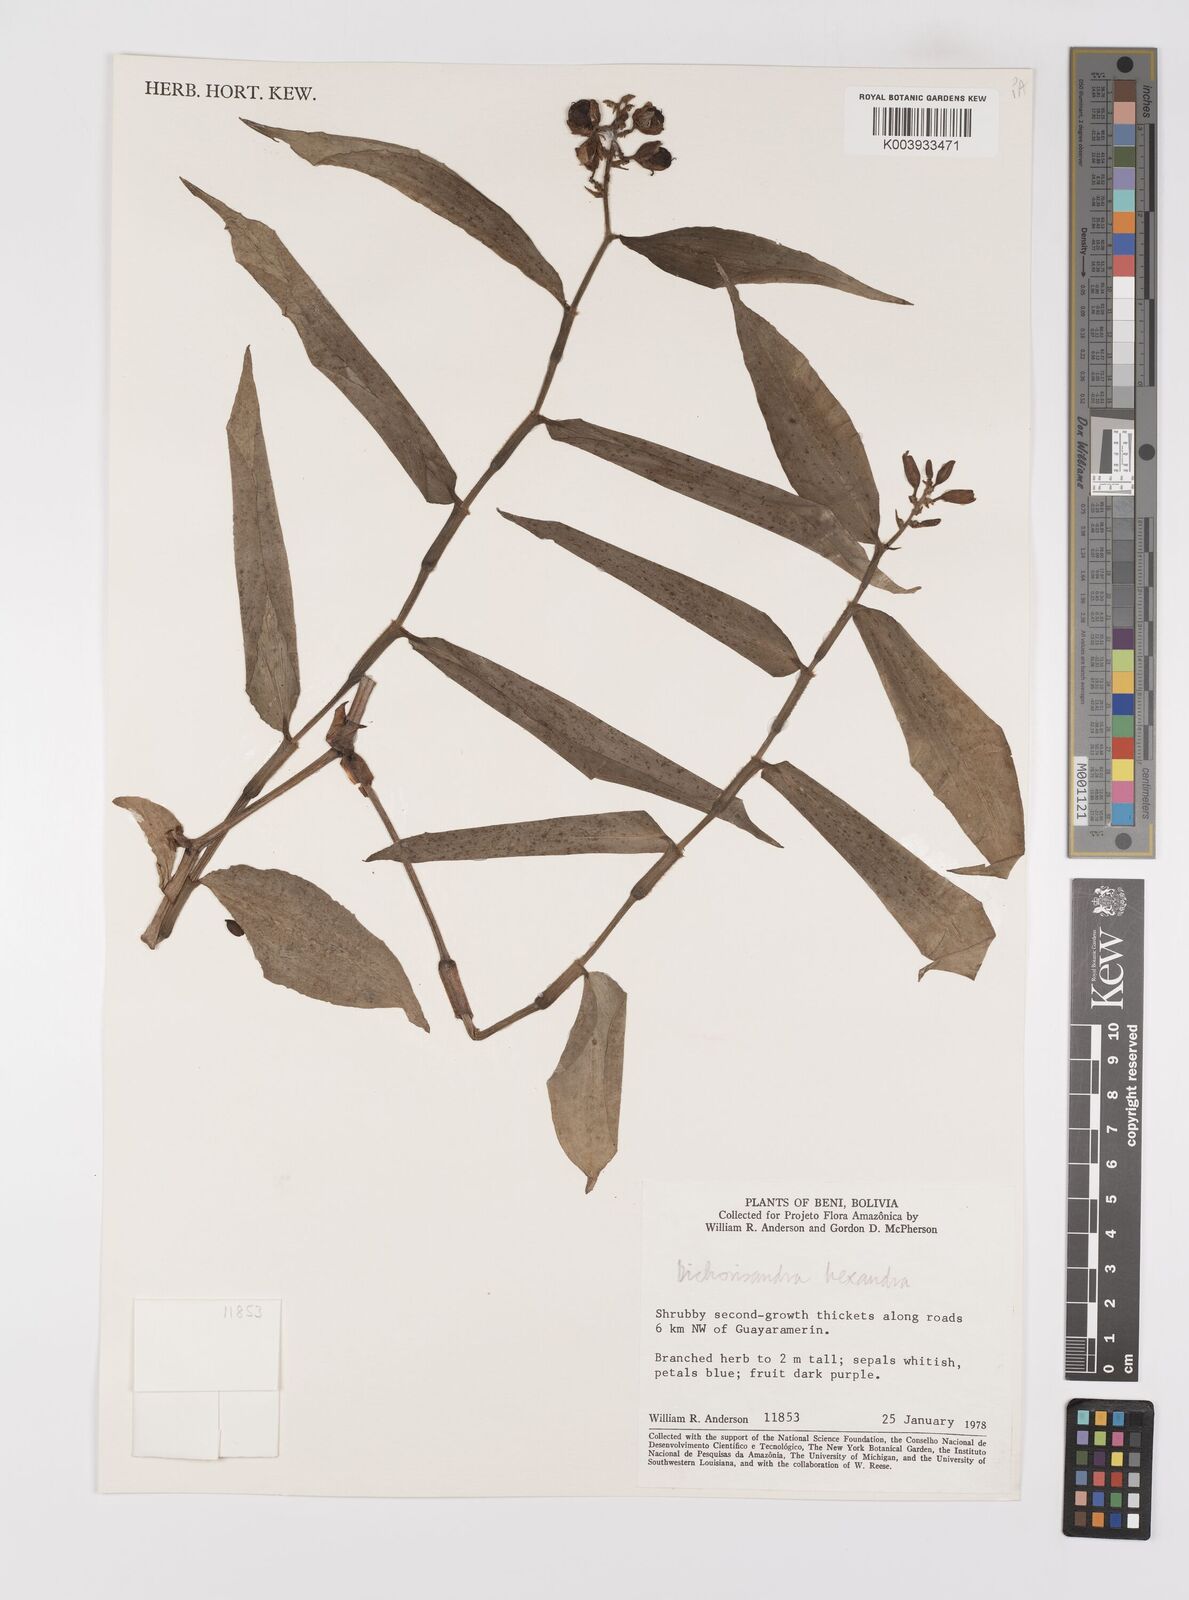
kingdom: Plantae
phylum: Tracheophyta
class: Liliopsida
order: Commelinales
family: Commelinaceae
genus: Dichorisandra
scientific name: Dichorisandra hexandra
